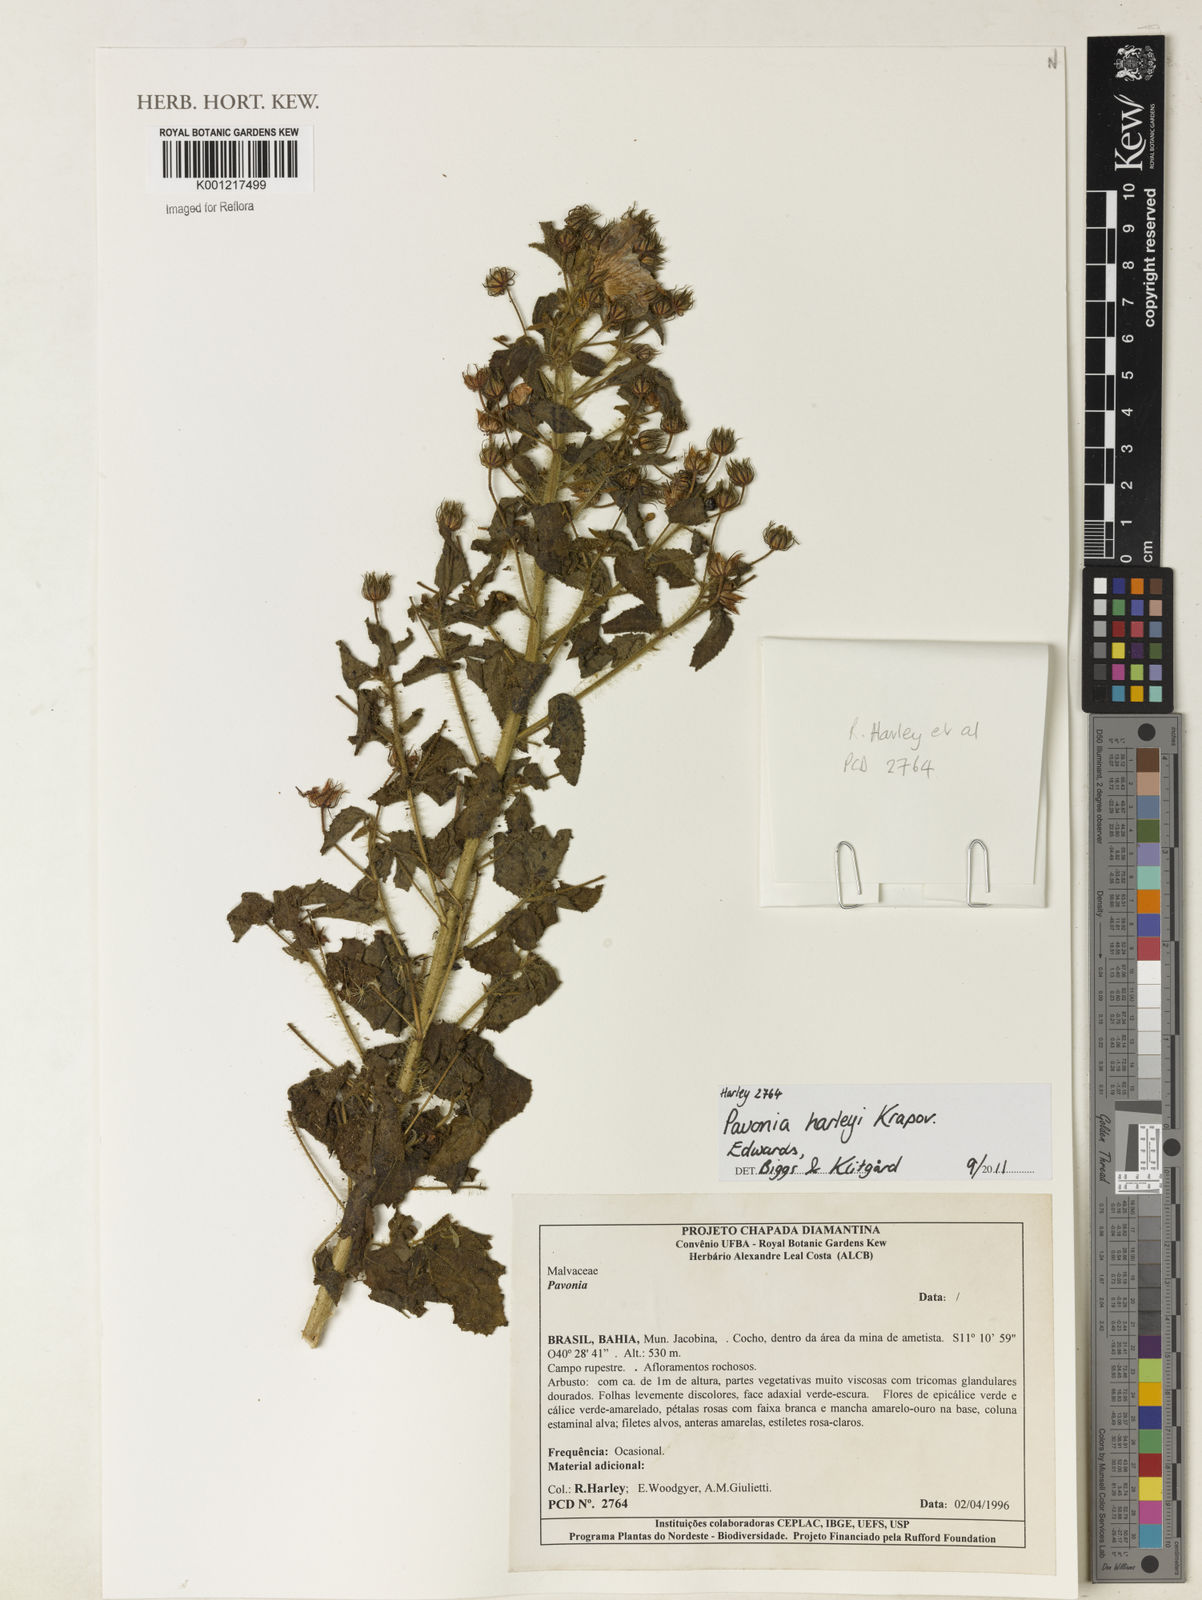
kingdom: Plantae
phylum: Tracheophyta
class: Magnoliopsida
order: Malvales
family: Malvaceae
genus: Pavonia
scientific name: Pavonia harleyi
